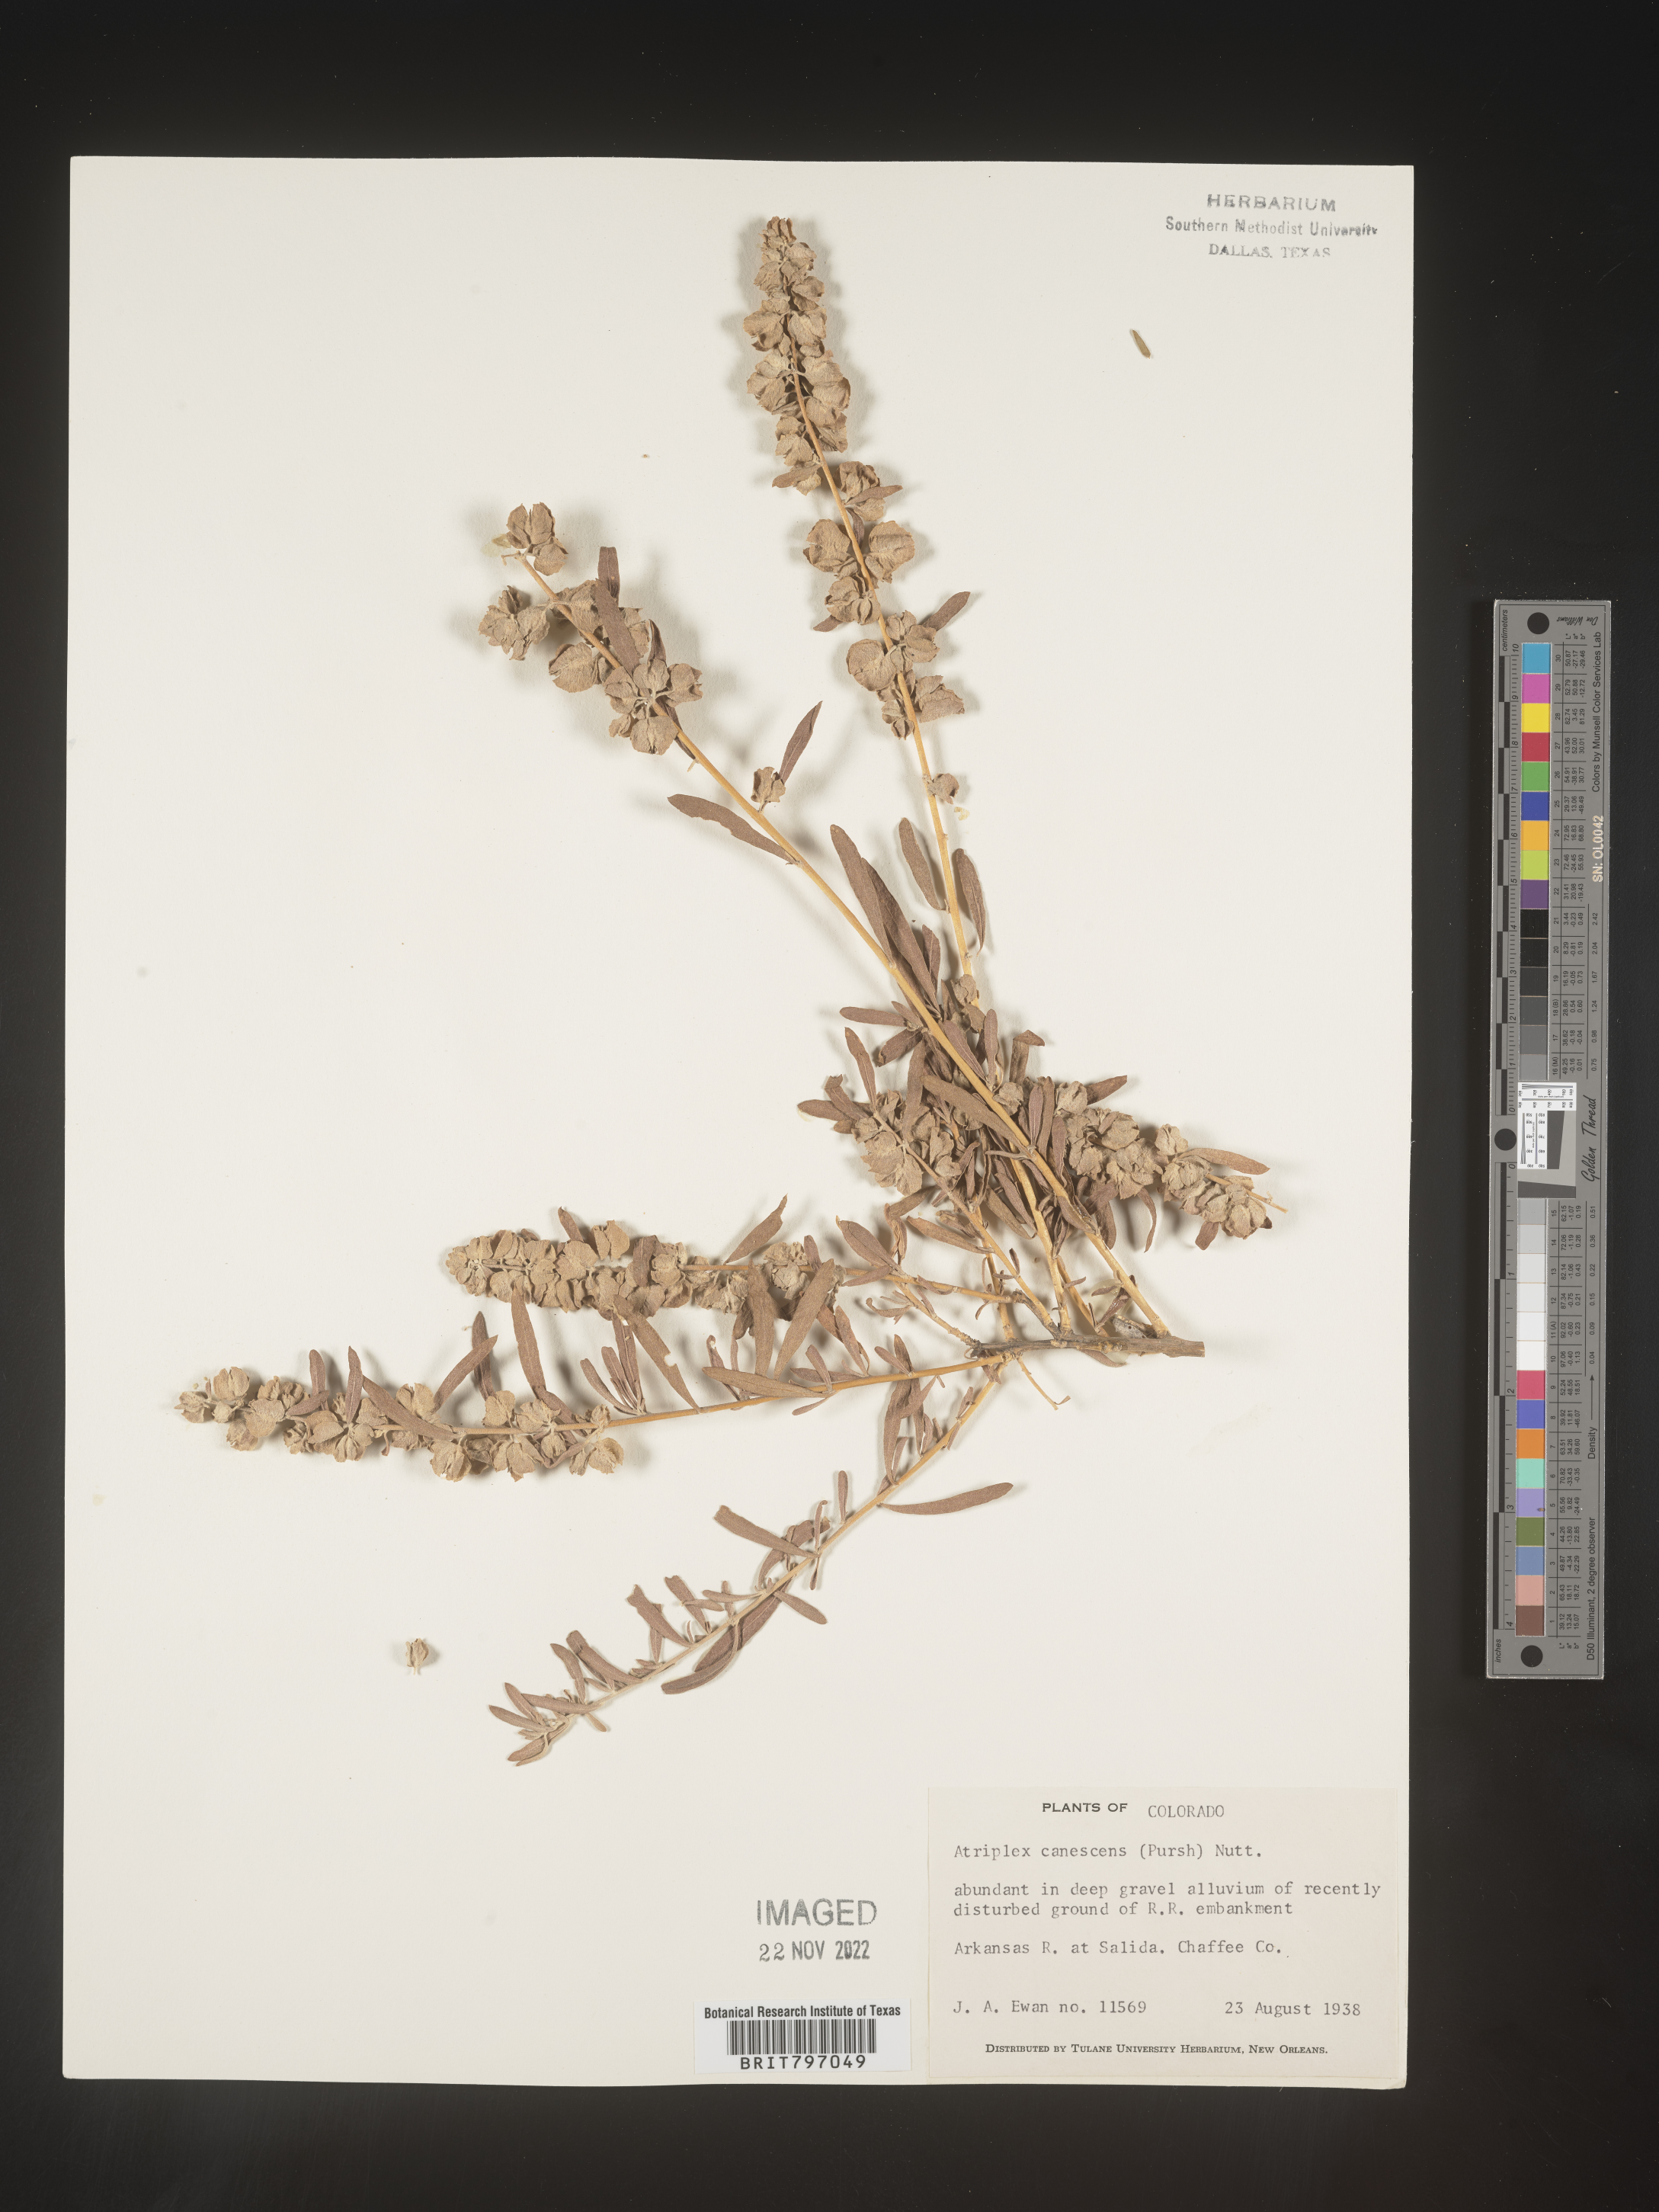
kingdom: Plantae
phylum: Tracheophyta
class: Magnoliopsida
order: Caryophyllales
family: Amaranthaceae
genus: Atriplex
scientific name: Atriplex canescens
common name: Four-wing saltbush
